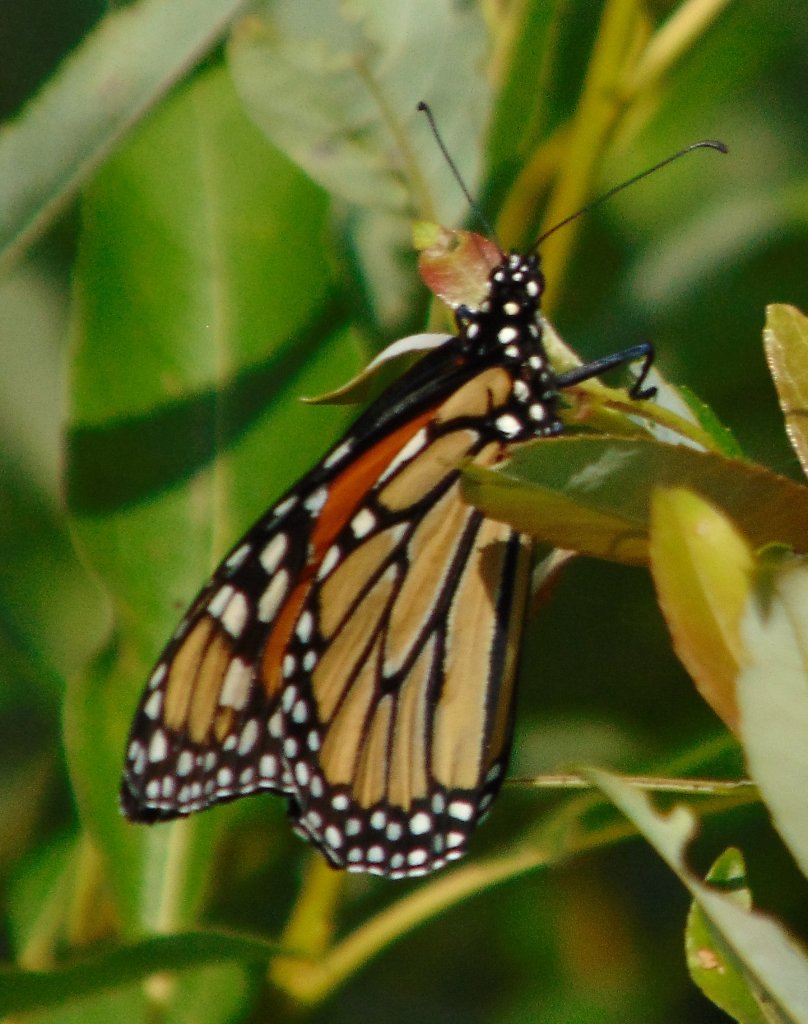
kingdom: Animalia
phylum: Arthropoda
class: Insecta
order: Lepidoptera
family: Nymphalidae
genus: Danaus
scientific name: Danaus plexippus
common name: Monarch
